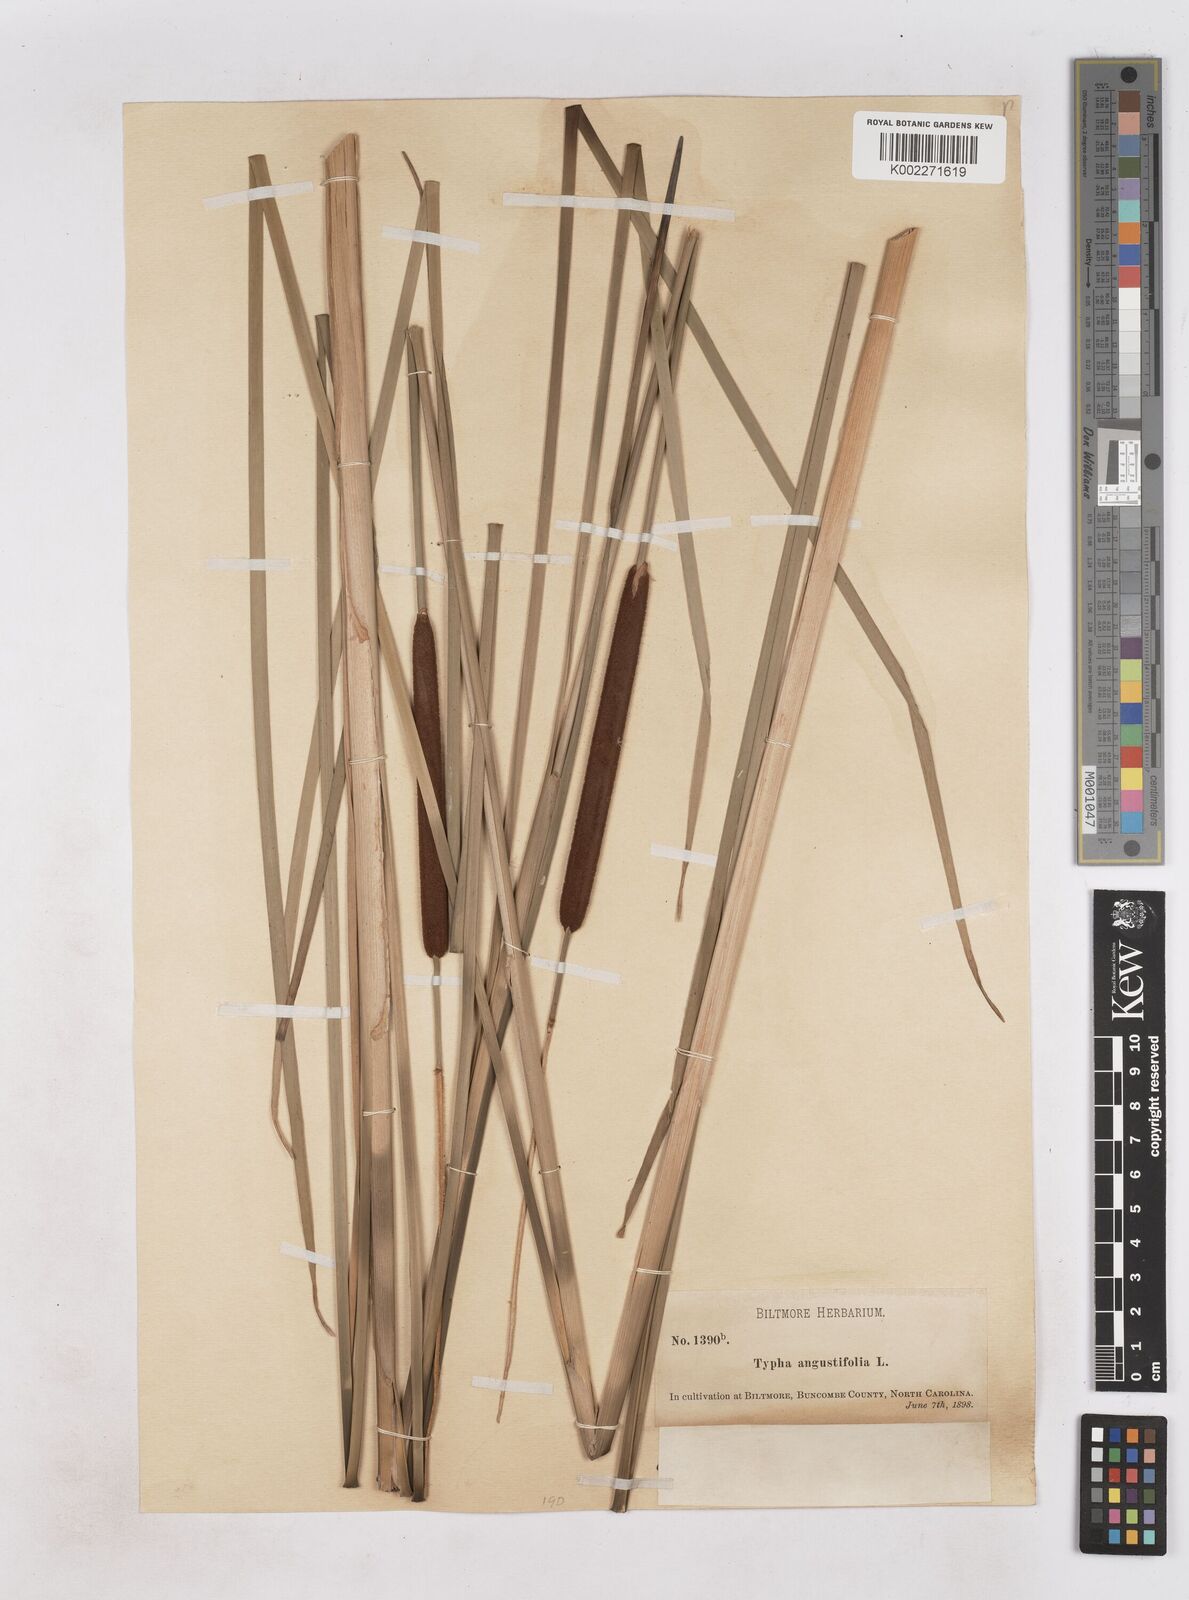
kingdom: Plantae
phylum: Tracheophyta
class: Liliopsida
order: Poales
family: Typhaceae
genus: Typha
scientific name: Typha angustifolia
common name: Lesser bulrush
